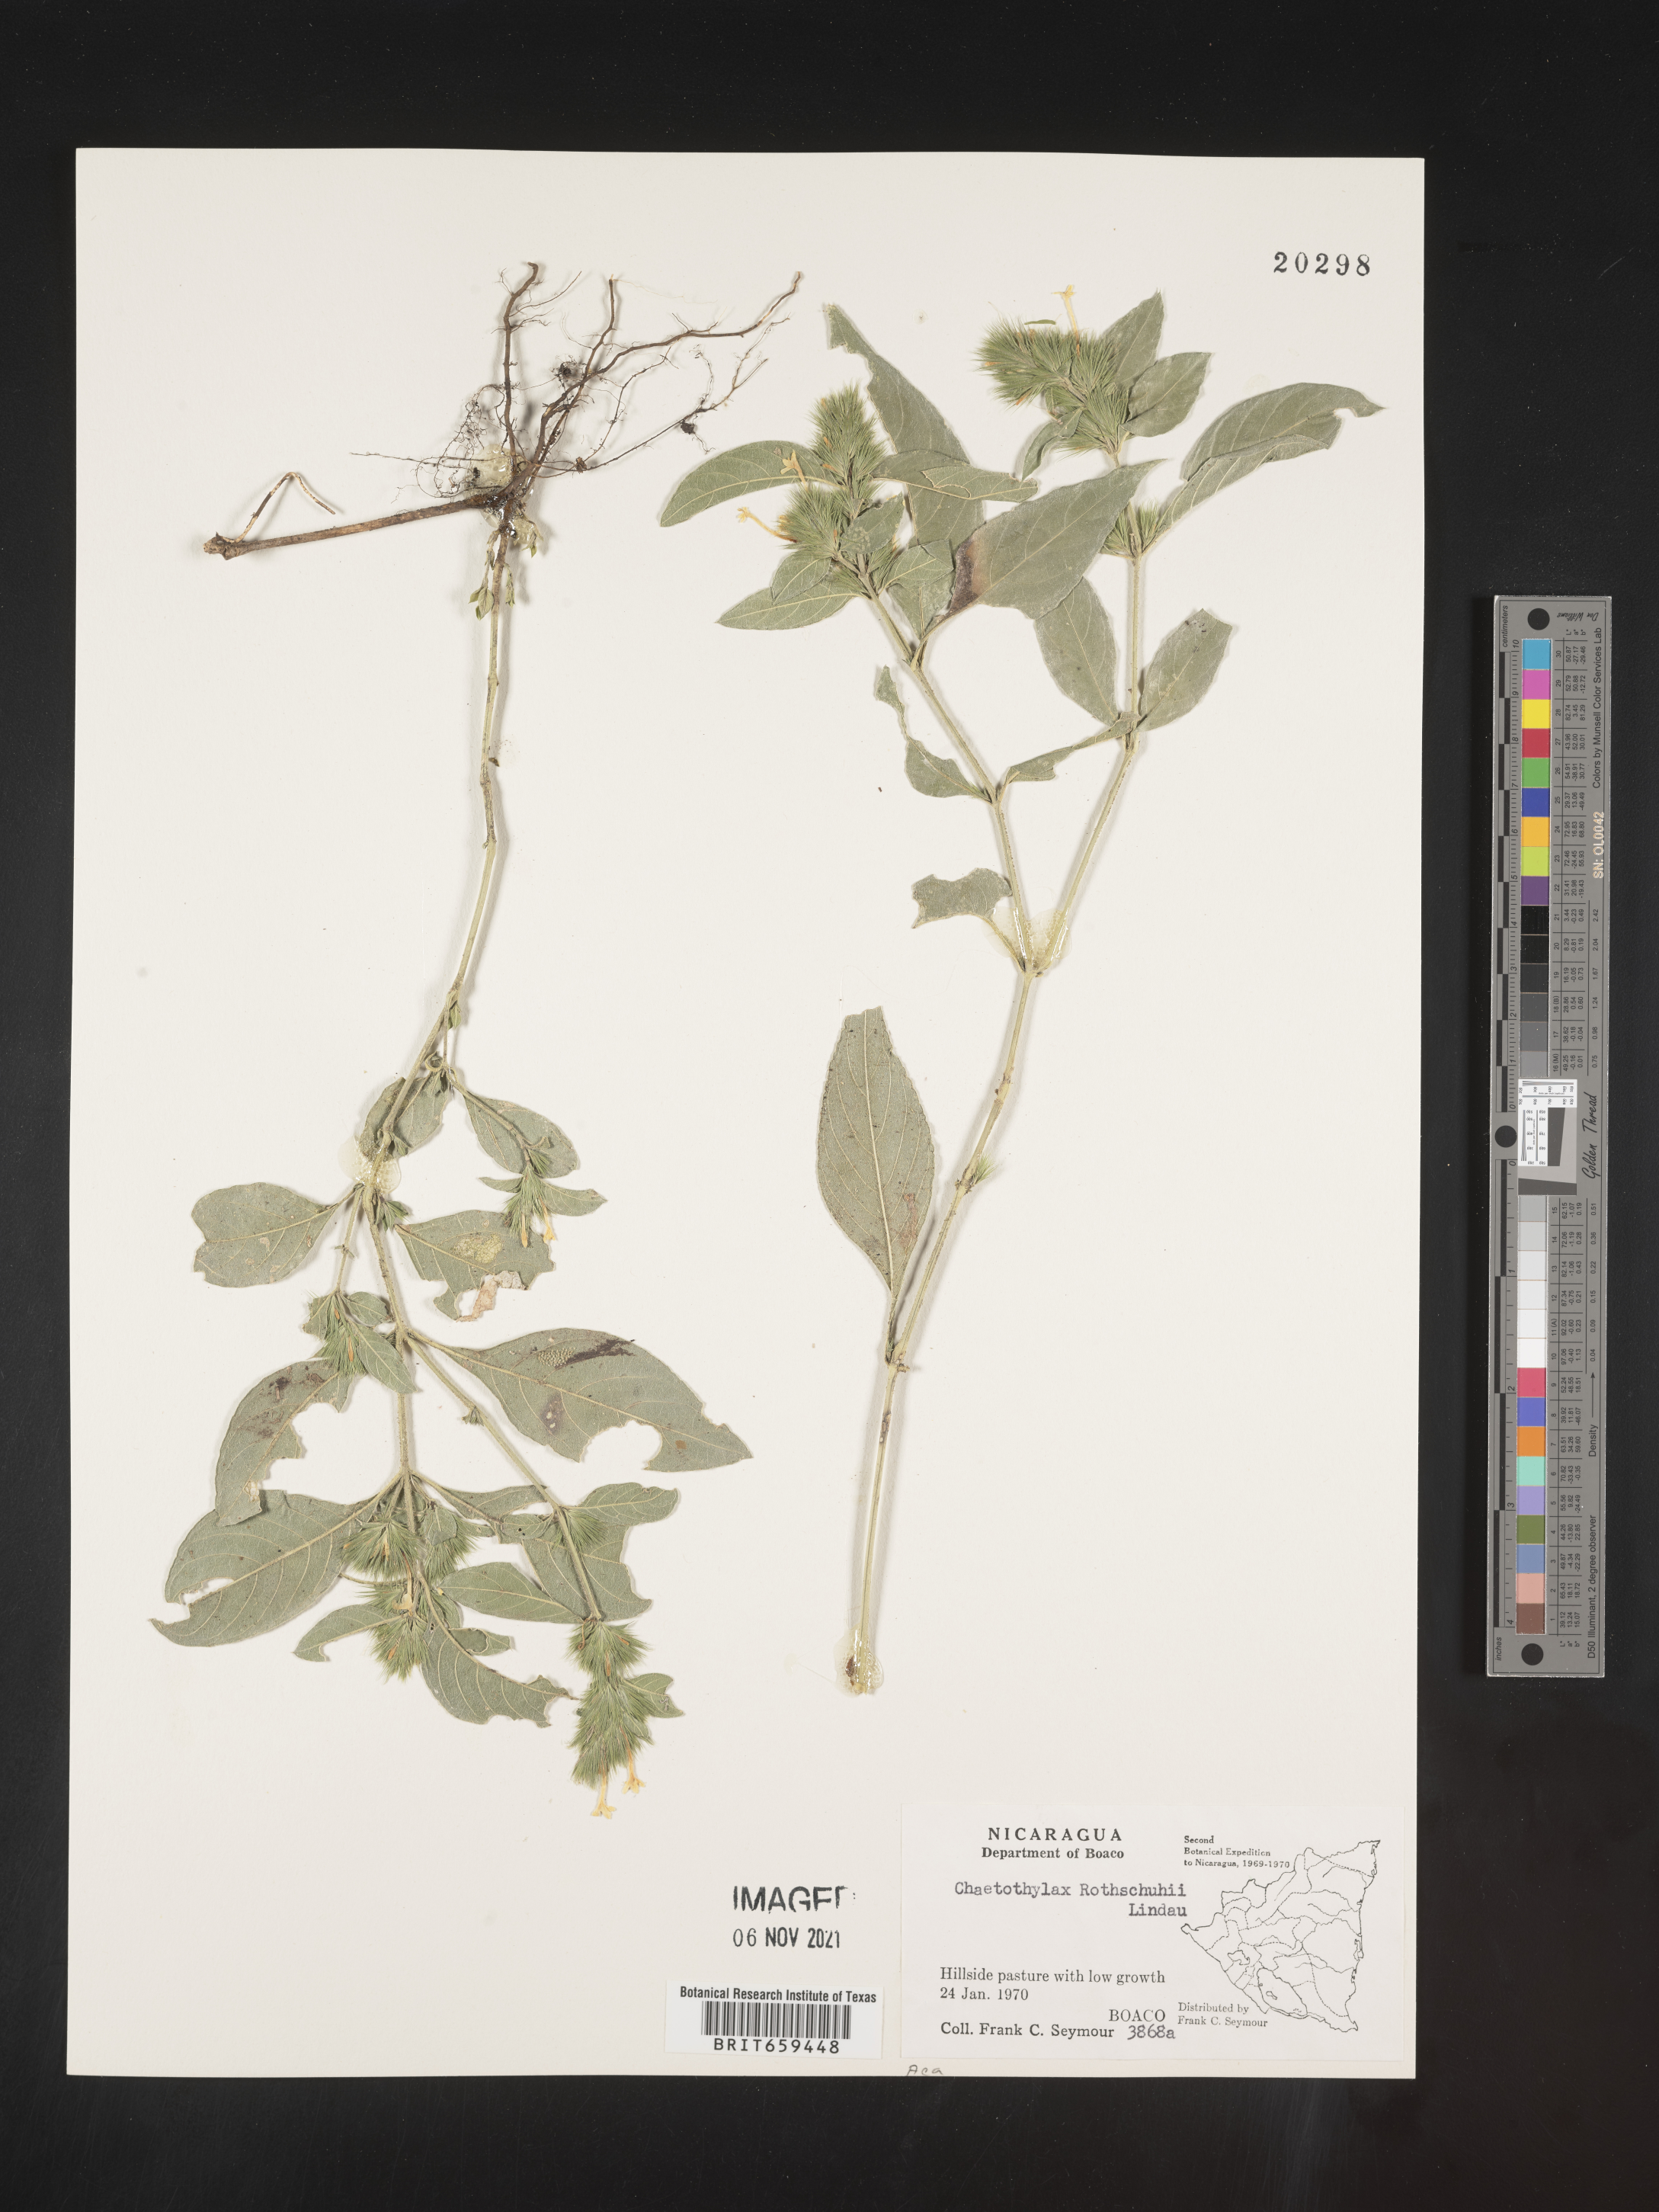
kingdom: Plantae
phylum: Tracheophyta
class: Magnoliopsida
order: Lamiales
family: Acanthaceae
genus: Justicia
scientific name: Justicia
